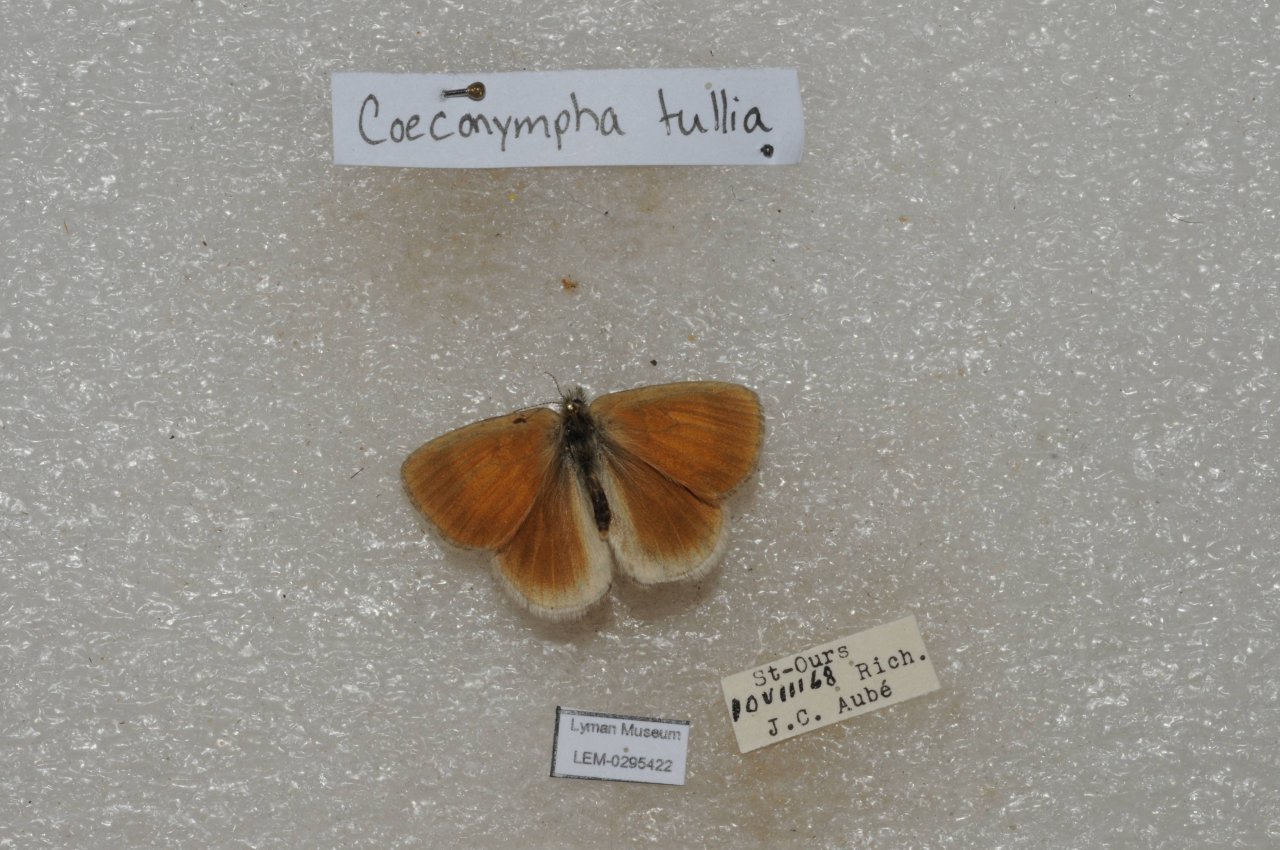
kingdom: Animalia
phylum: Arthropoda
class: Insecta
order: Lepidoptera
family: Nymphalidae
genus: Coenonympha
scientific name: Coenonympha tullia
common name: Large Heath
